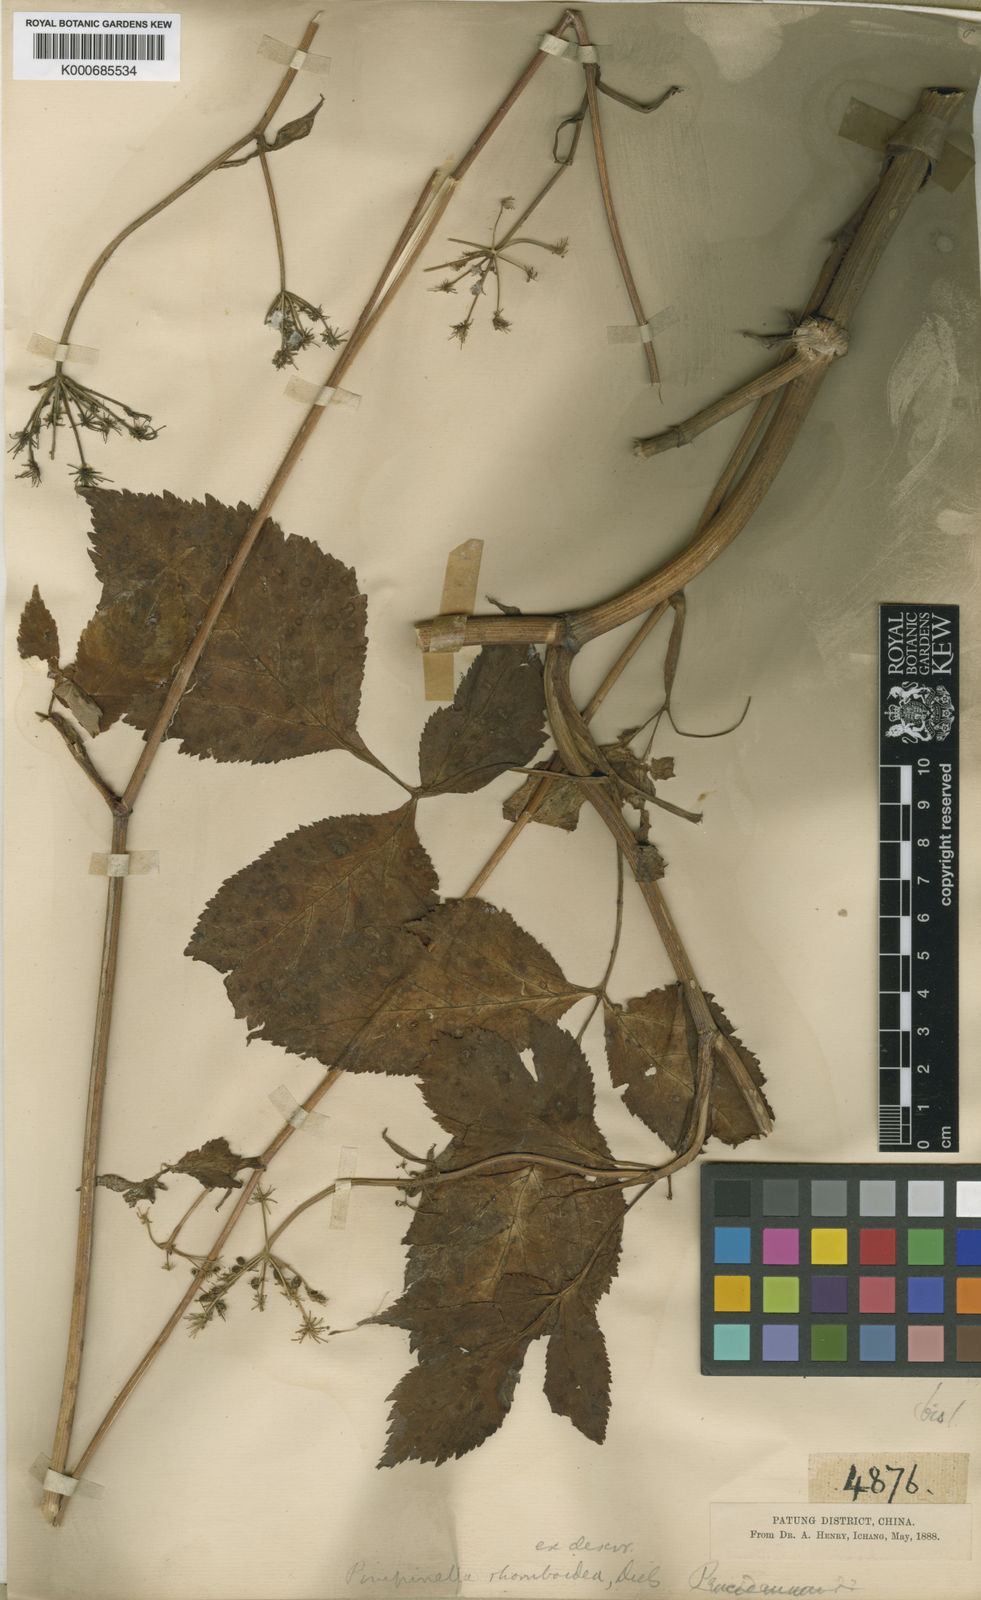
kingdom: Plantae
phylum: Tracheophyta
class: Magnoliopsida
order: Apiales
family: Apiaceae
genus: Pimpinella
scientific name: Pimpinella rhomboidea
